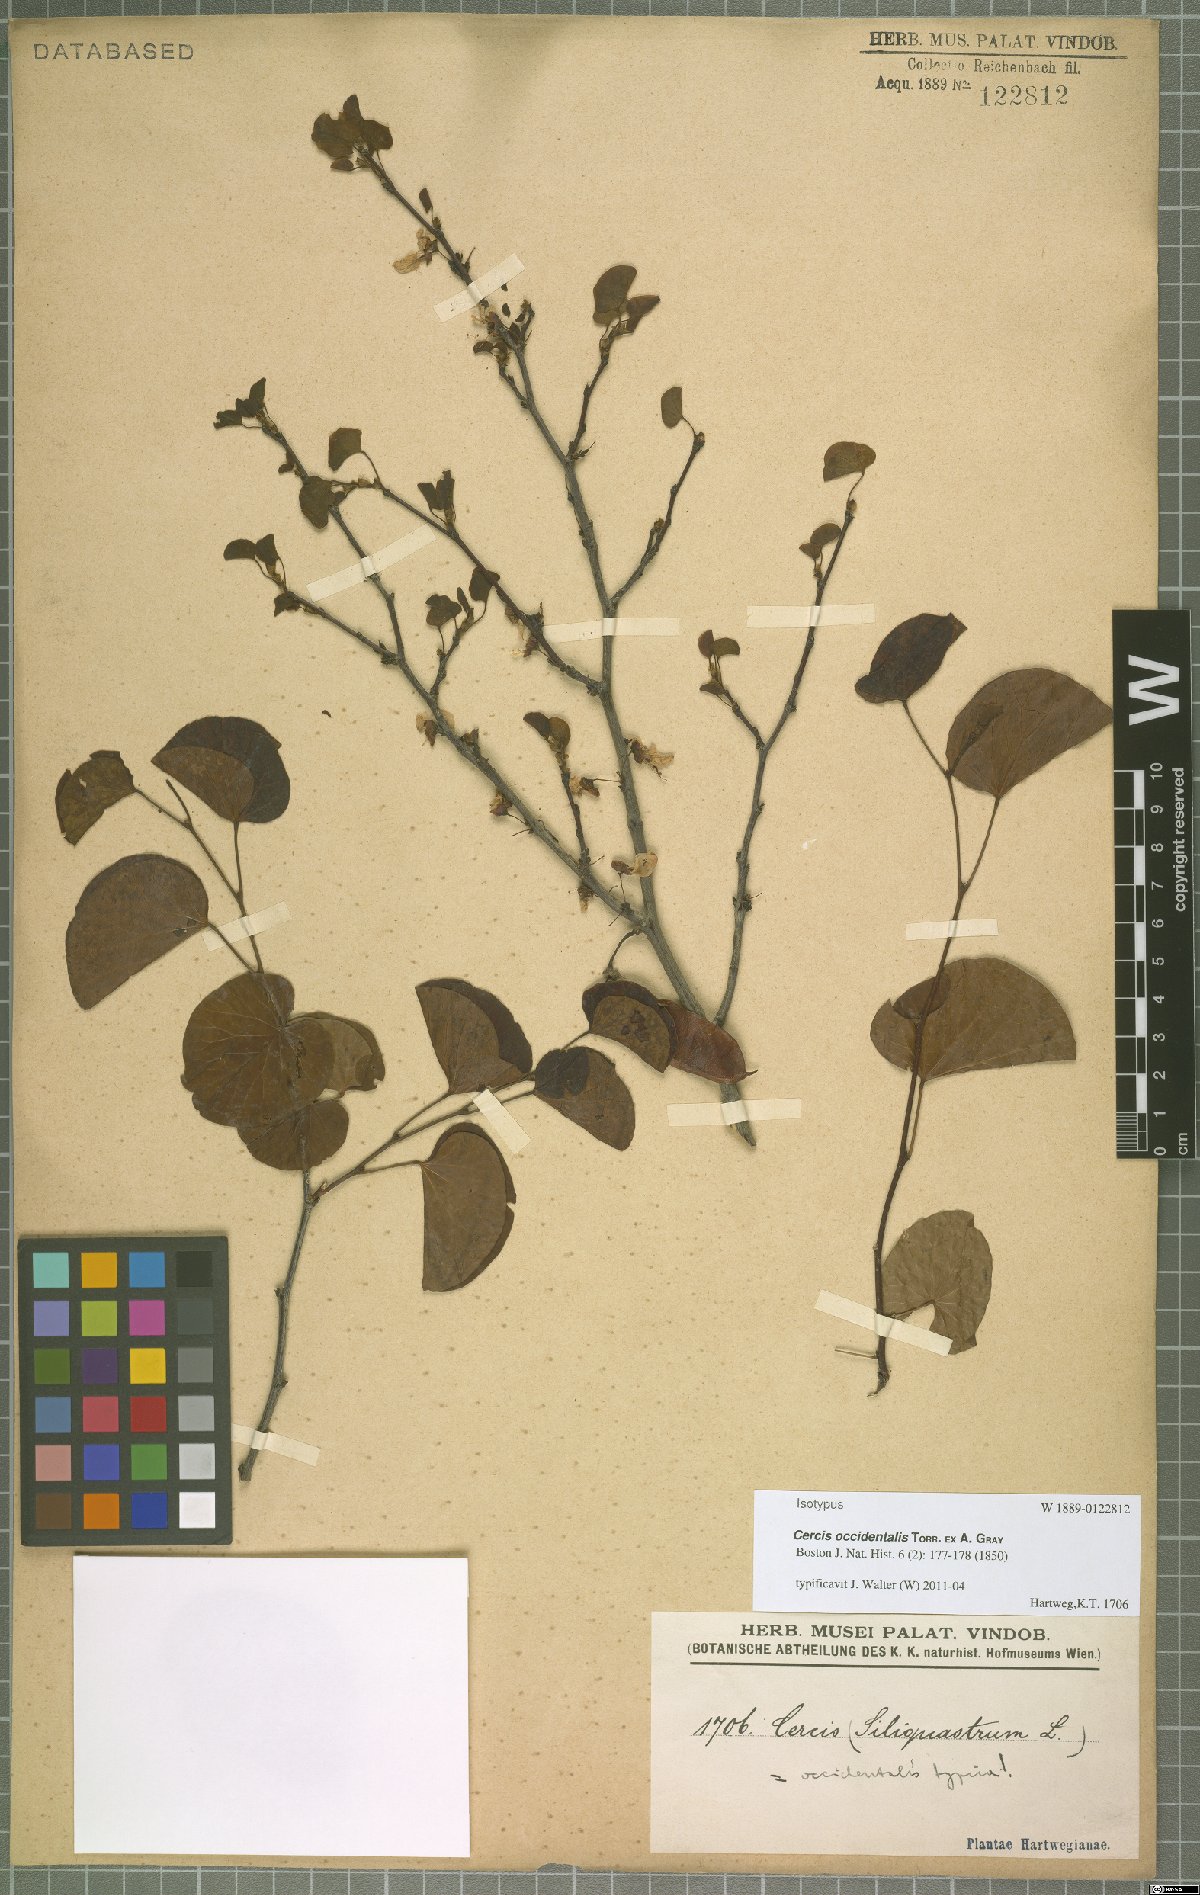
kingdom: Plantae
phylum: Tracheophyta
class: Magnoliopsida
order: Fabales
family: Fabaceae
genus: Cercis
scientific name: Cercis occidentalis
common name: California redbud
